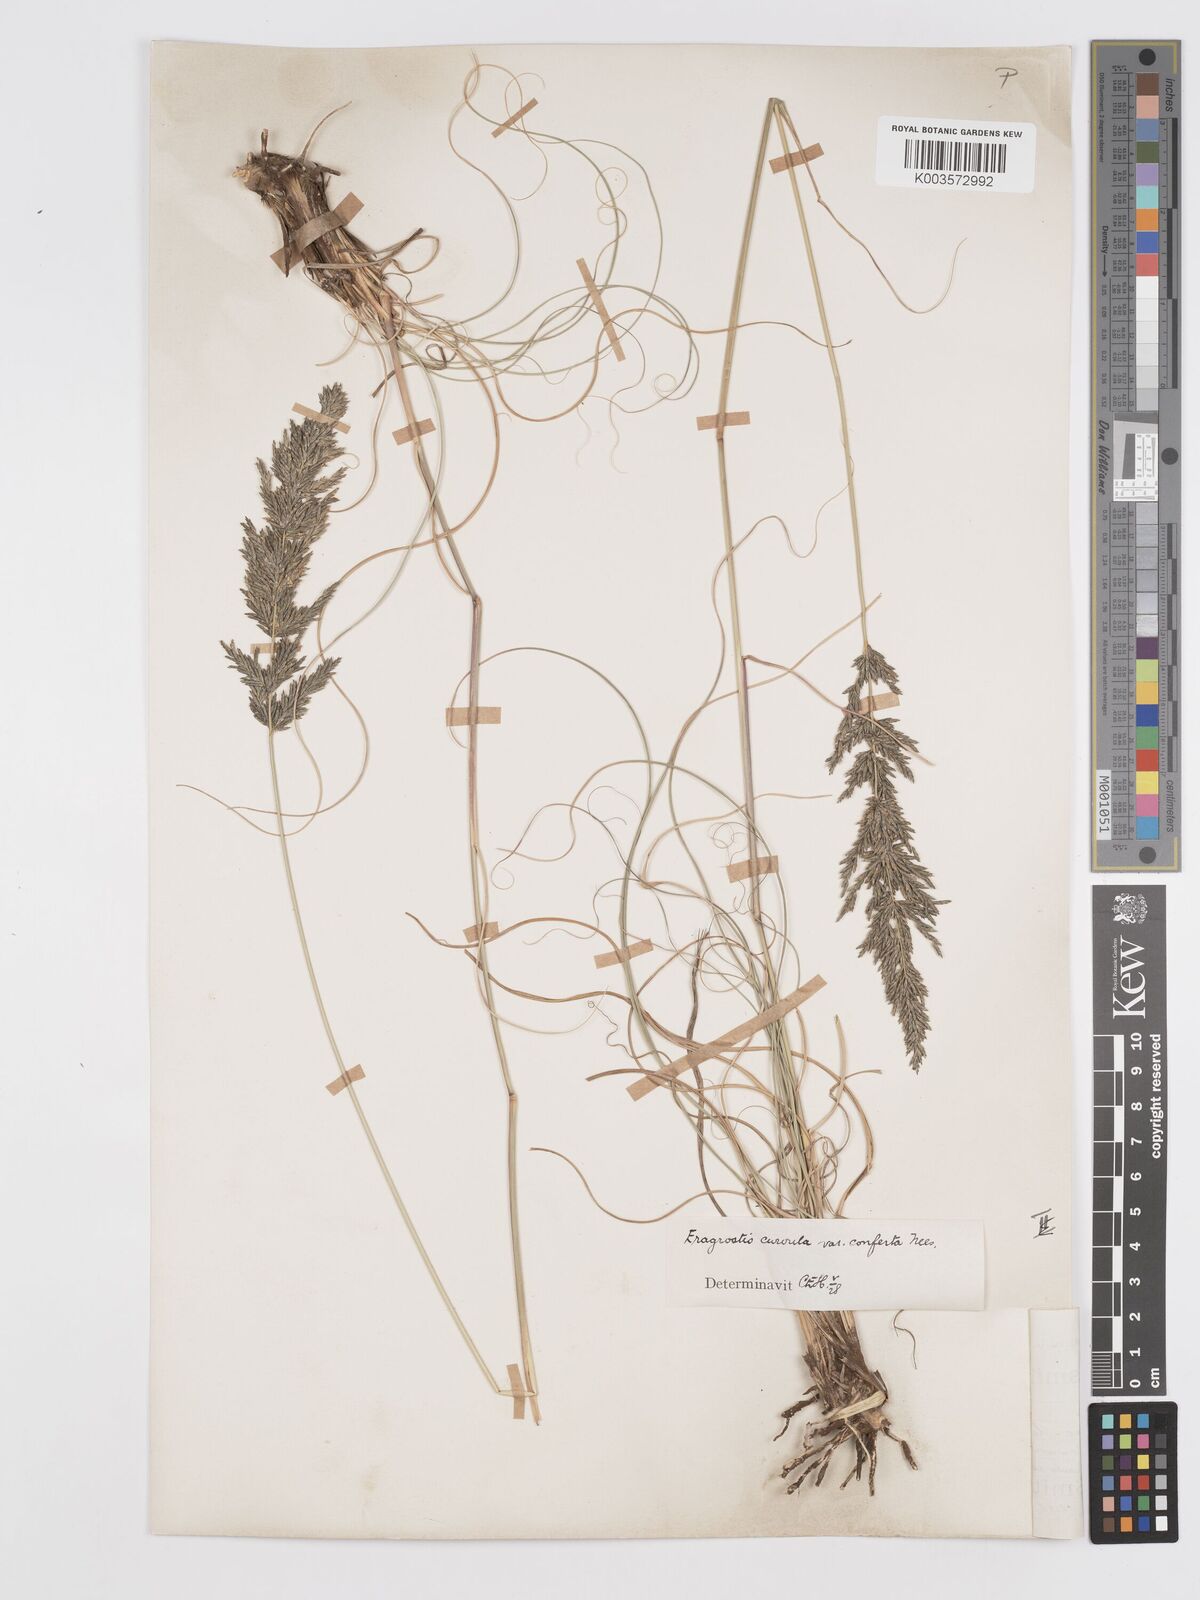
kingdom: Plantae
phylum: Tracheophyta
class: Liliopsida
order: Poales
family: Poaceae
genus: Eragrostis
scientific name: Eragrostis curvula
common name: African love-grass
